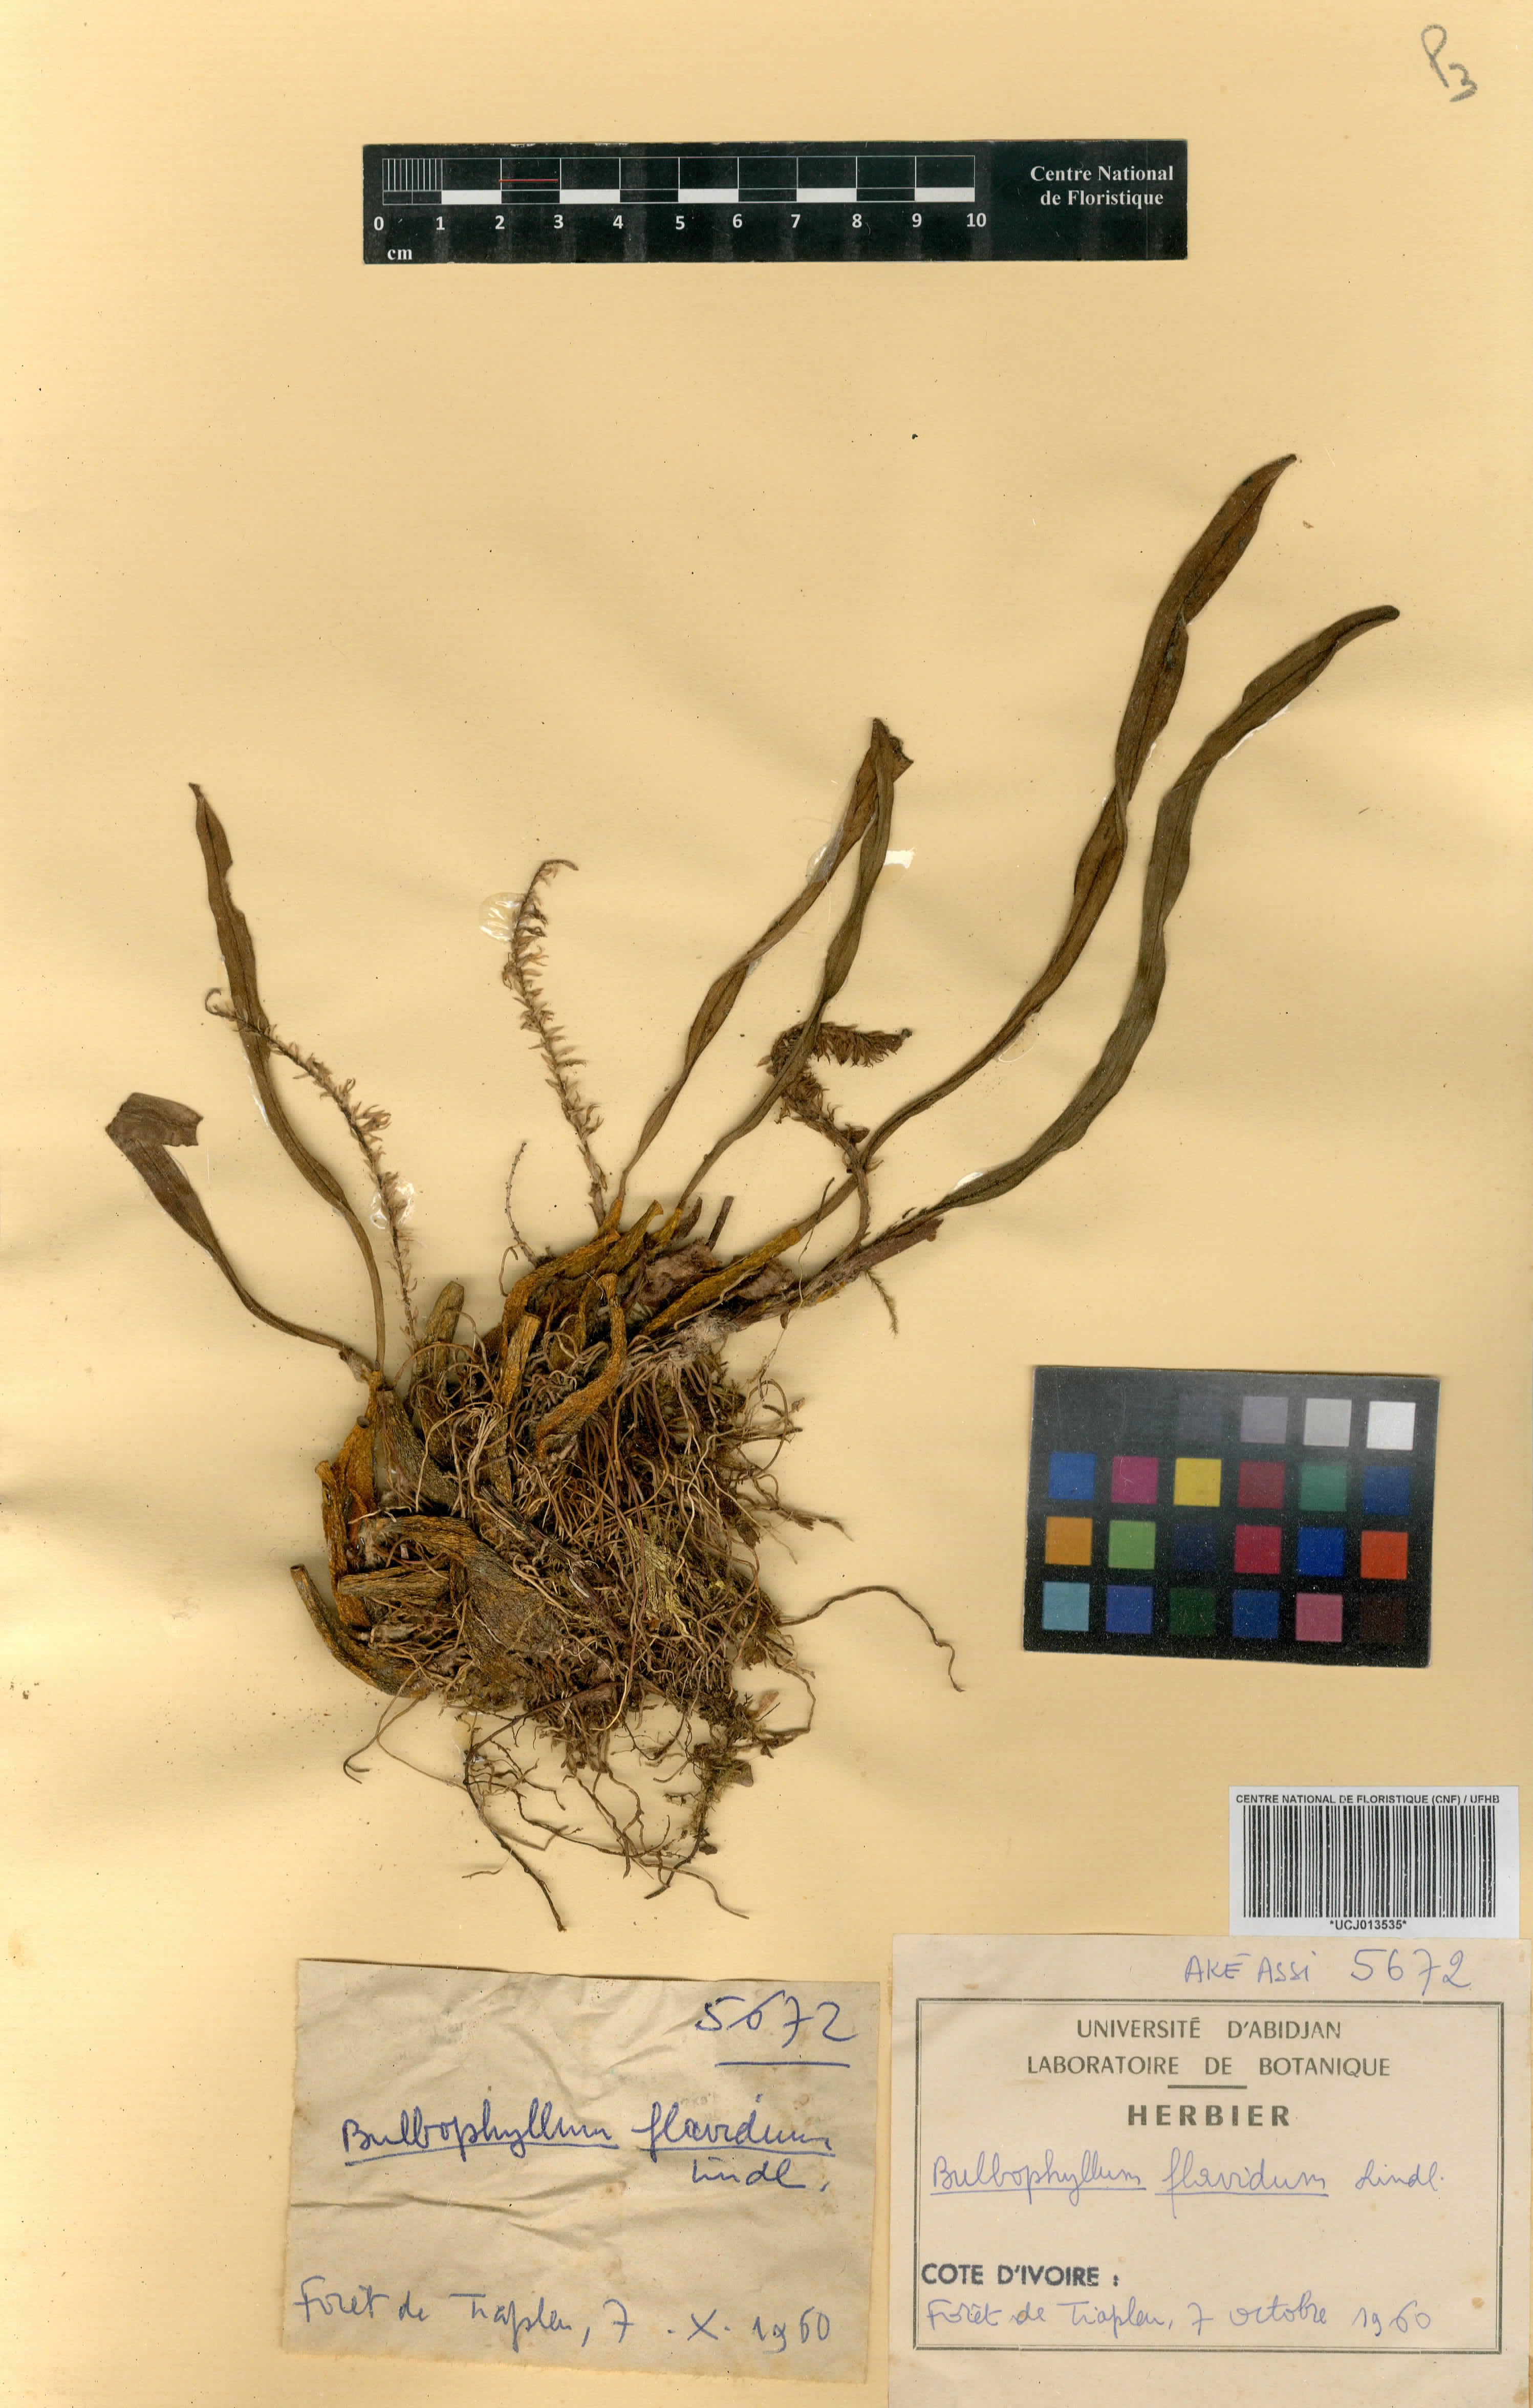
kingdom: Plantae
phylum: Tracheophyta
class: Liliopsida
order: Asparagales
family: Orchidaceae
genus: Bulbophyllum
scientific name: Bulbophyllum pumilum
